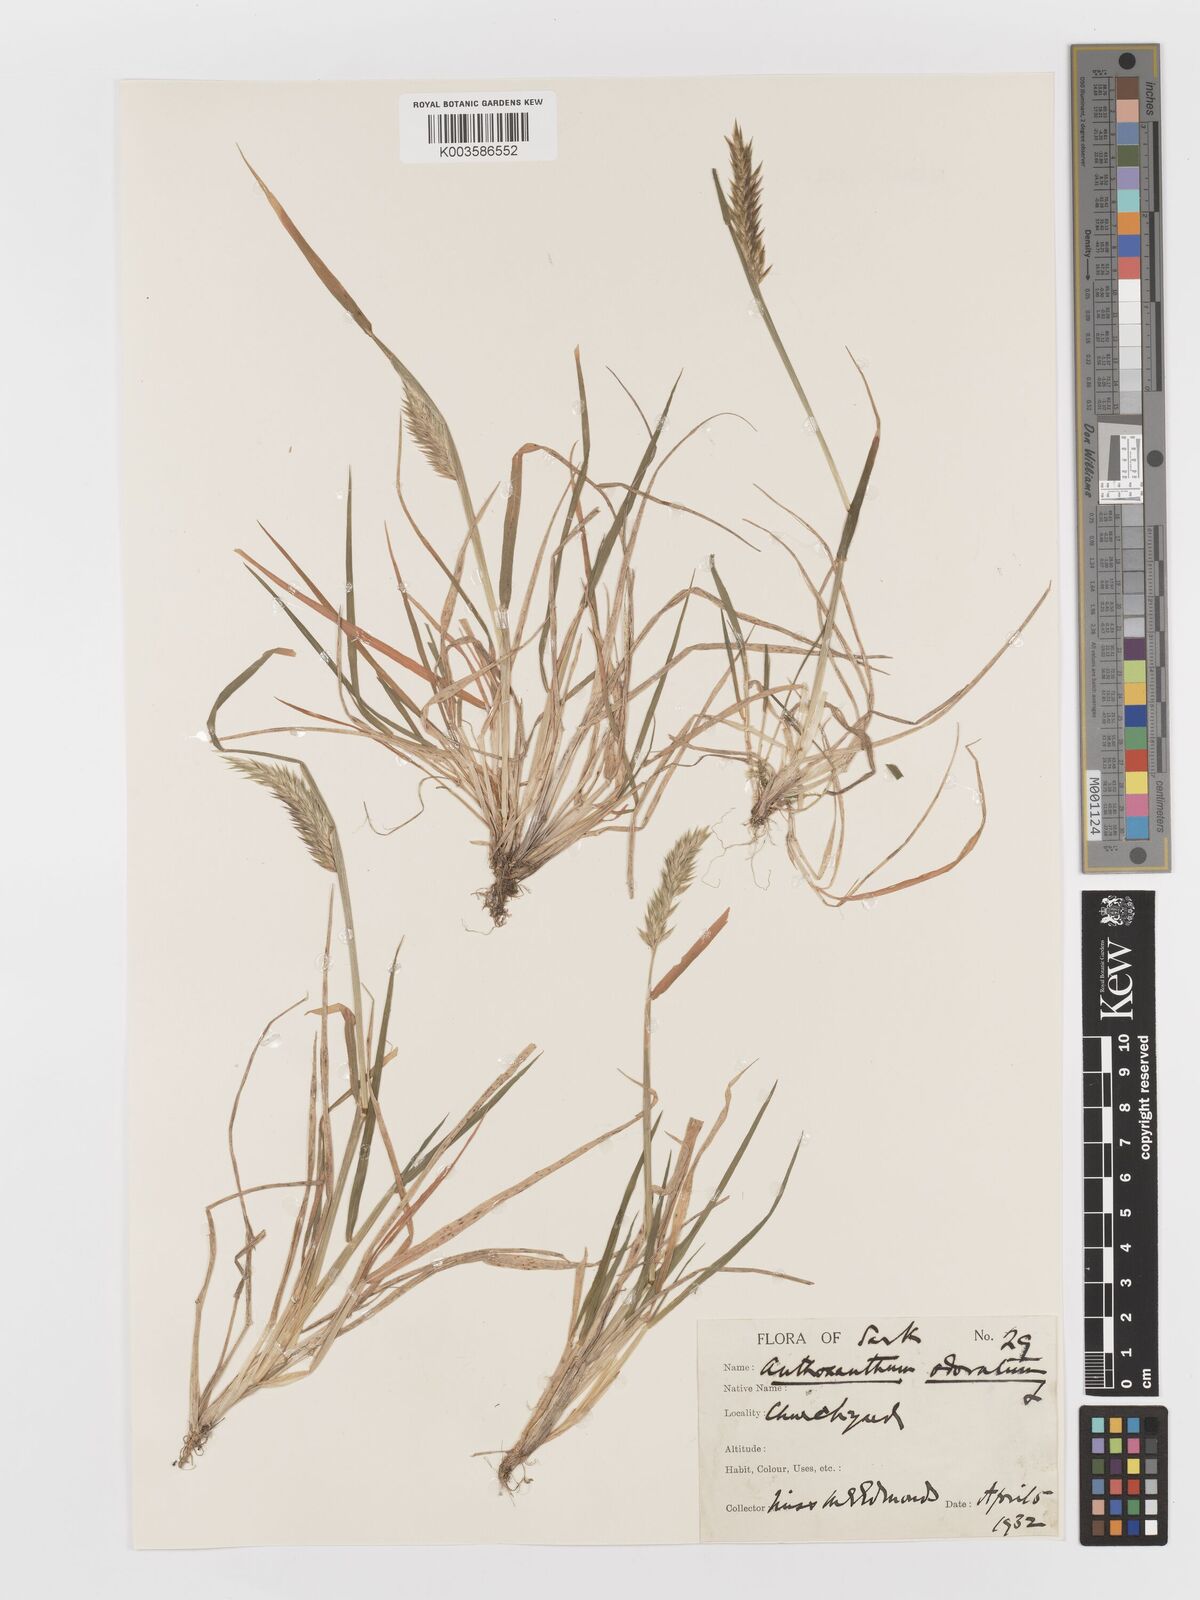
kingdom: Plantae
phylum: Tracheophyta
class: Liliopsida
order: Poales
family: Poaceae
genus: Anthoxanthum
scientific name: Anthoxanthum odoratum
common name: Sweet vernalgrass
